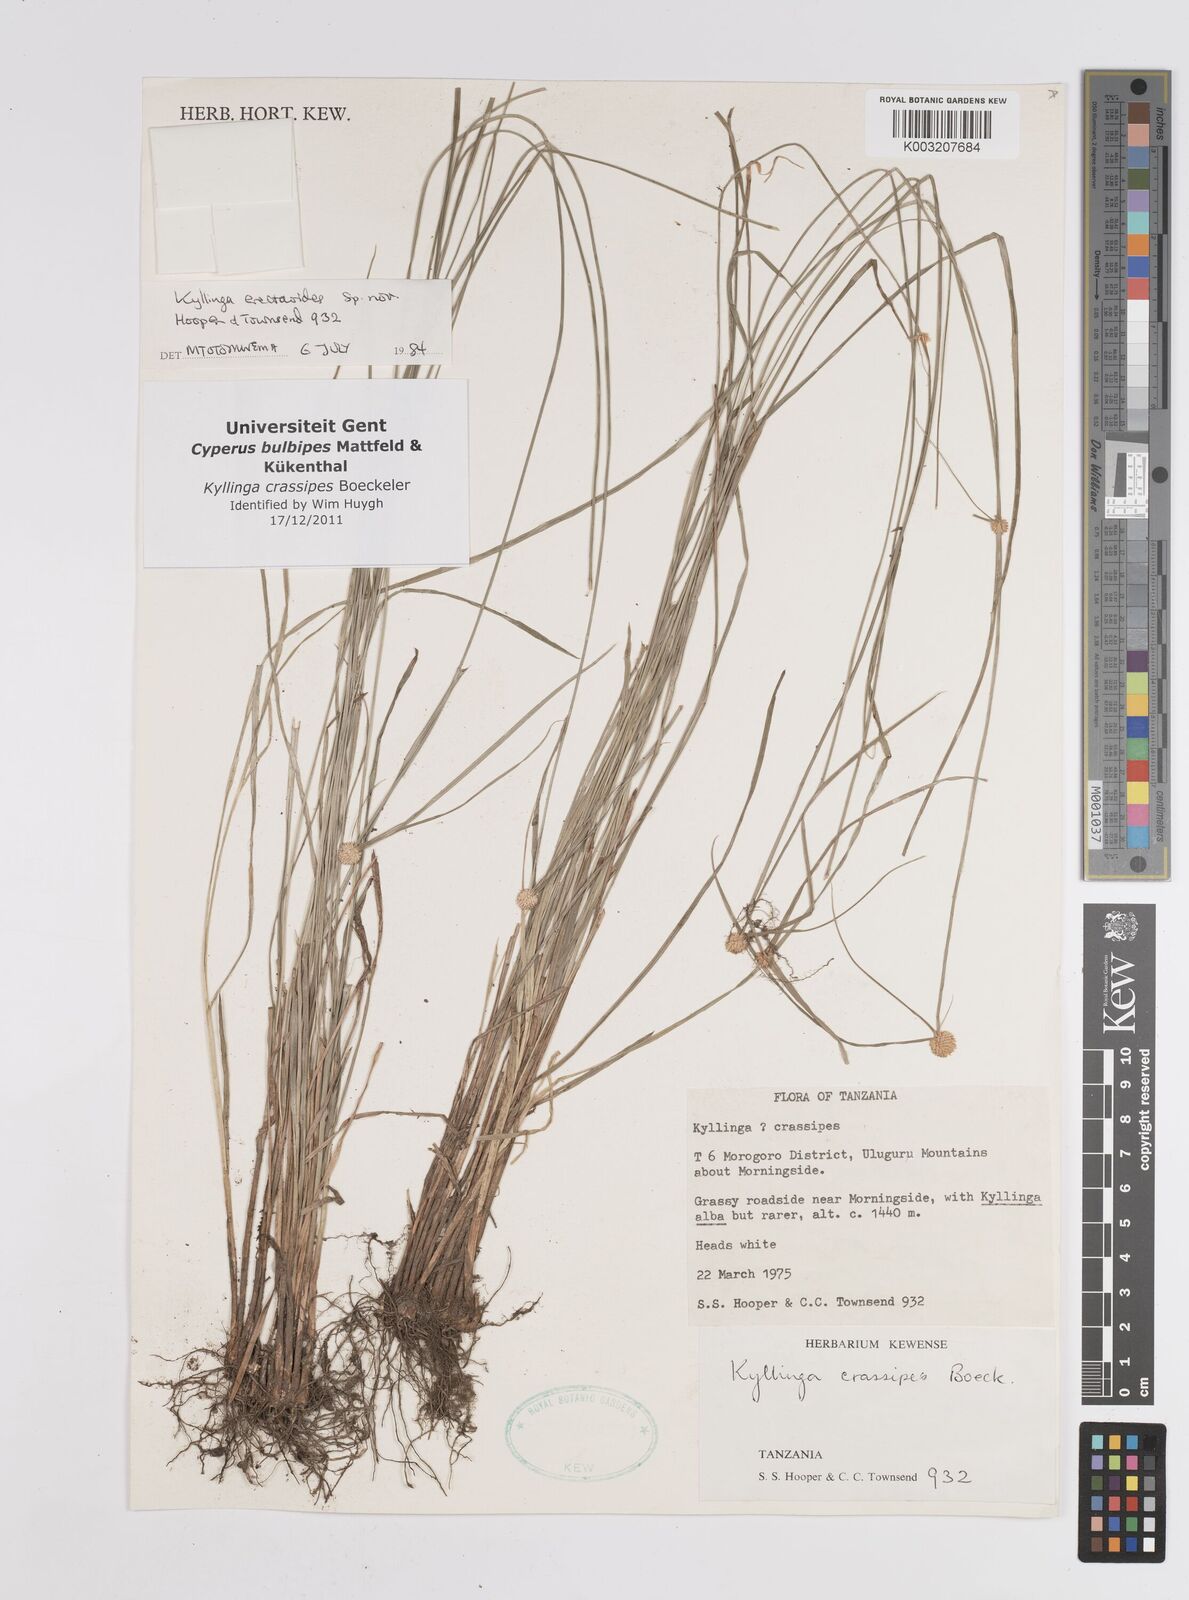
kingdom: Plantae
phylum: Tracheophyta
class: Liliopsida
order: Poales
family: Cyperaceae
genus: Cyperus
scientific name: Cyperus crassipes
